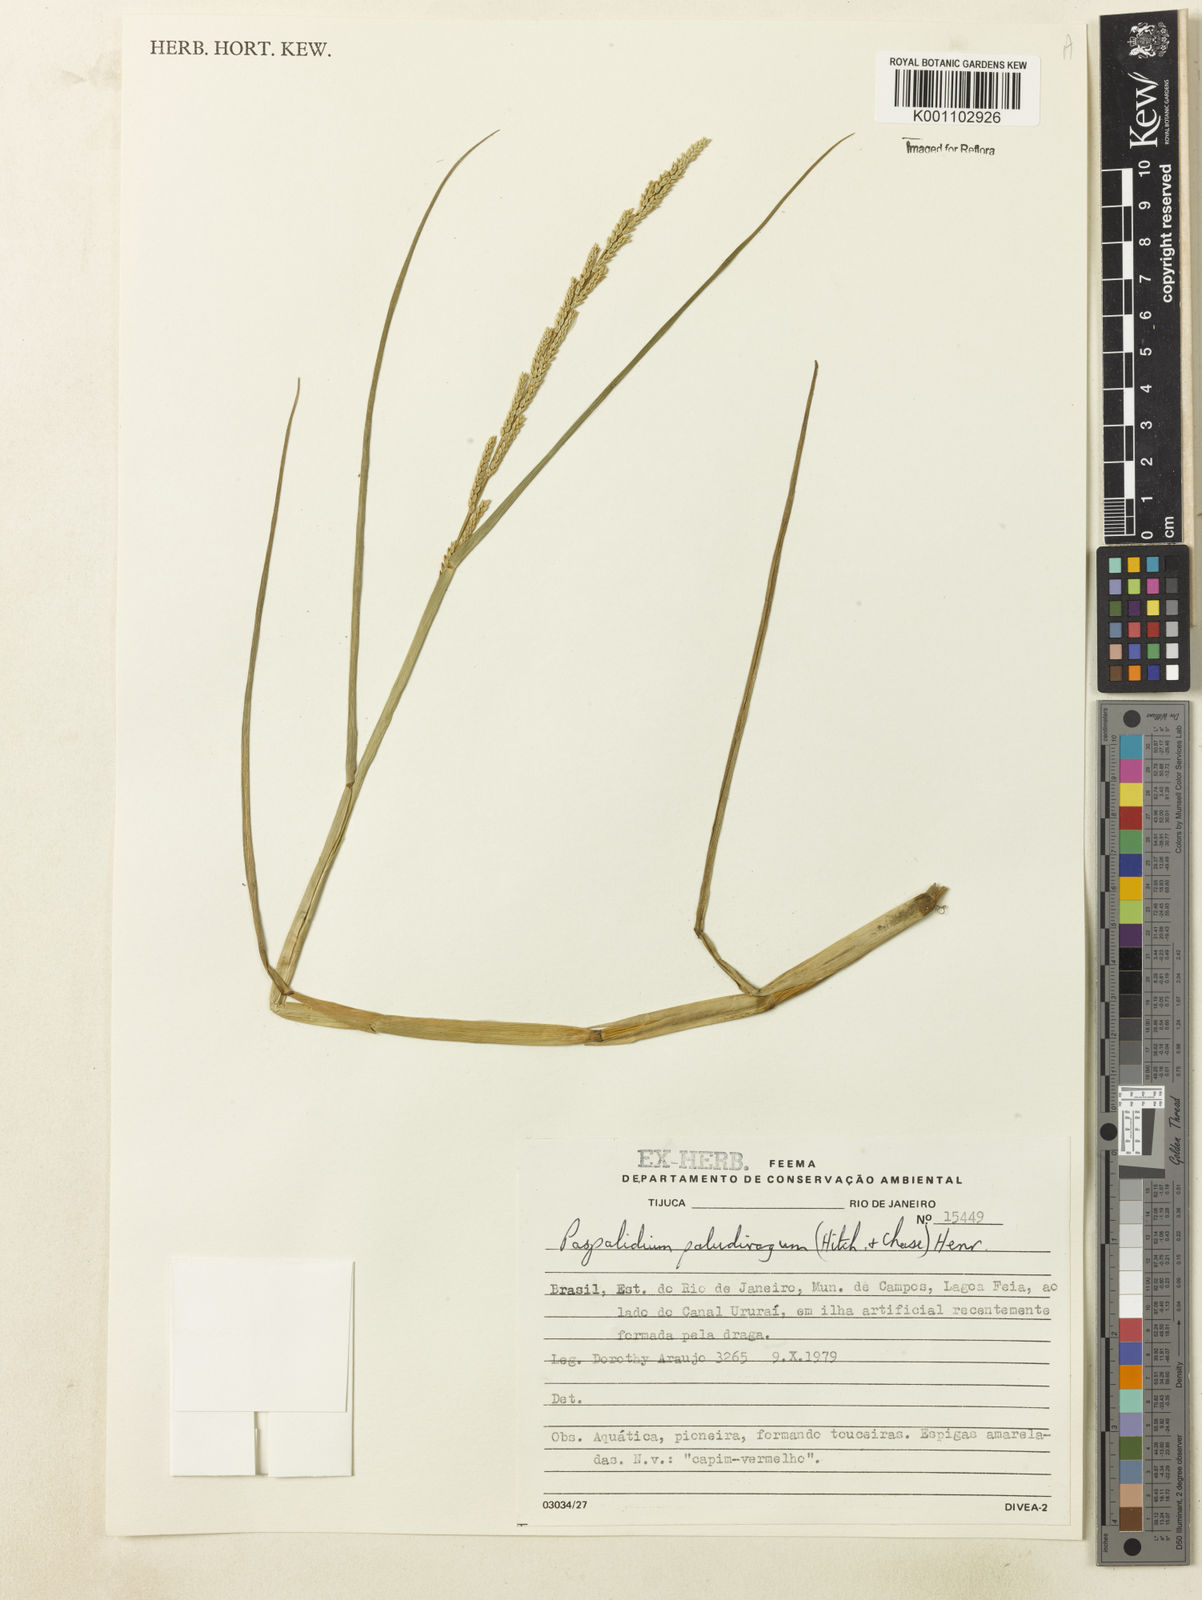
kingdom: Plantae
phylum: Tracheophyta
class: Liliopsida
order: Poales
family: Poaceae
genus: Setaria
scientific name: Setaria geminata
